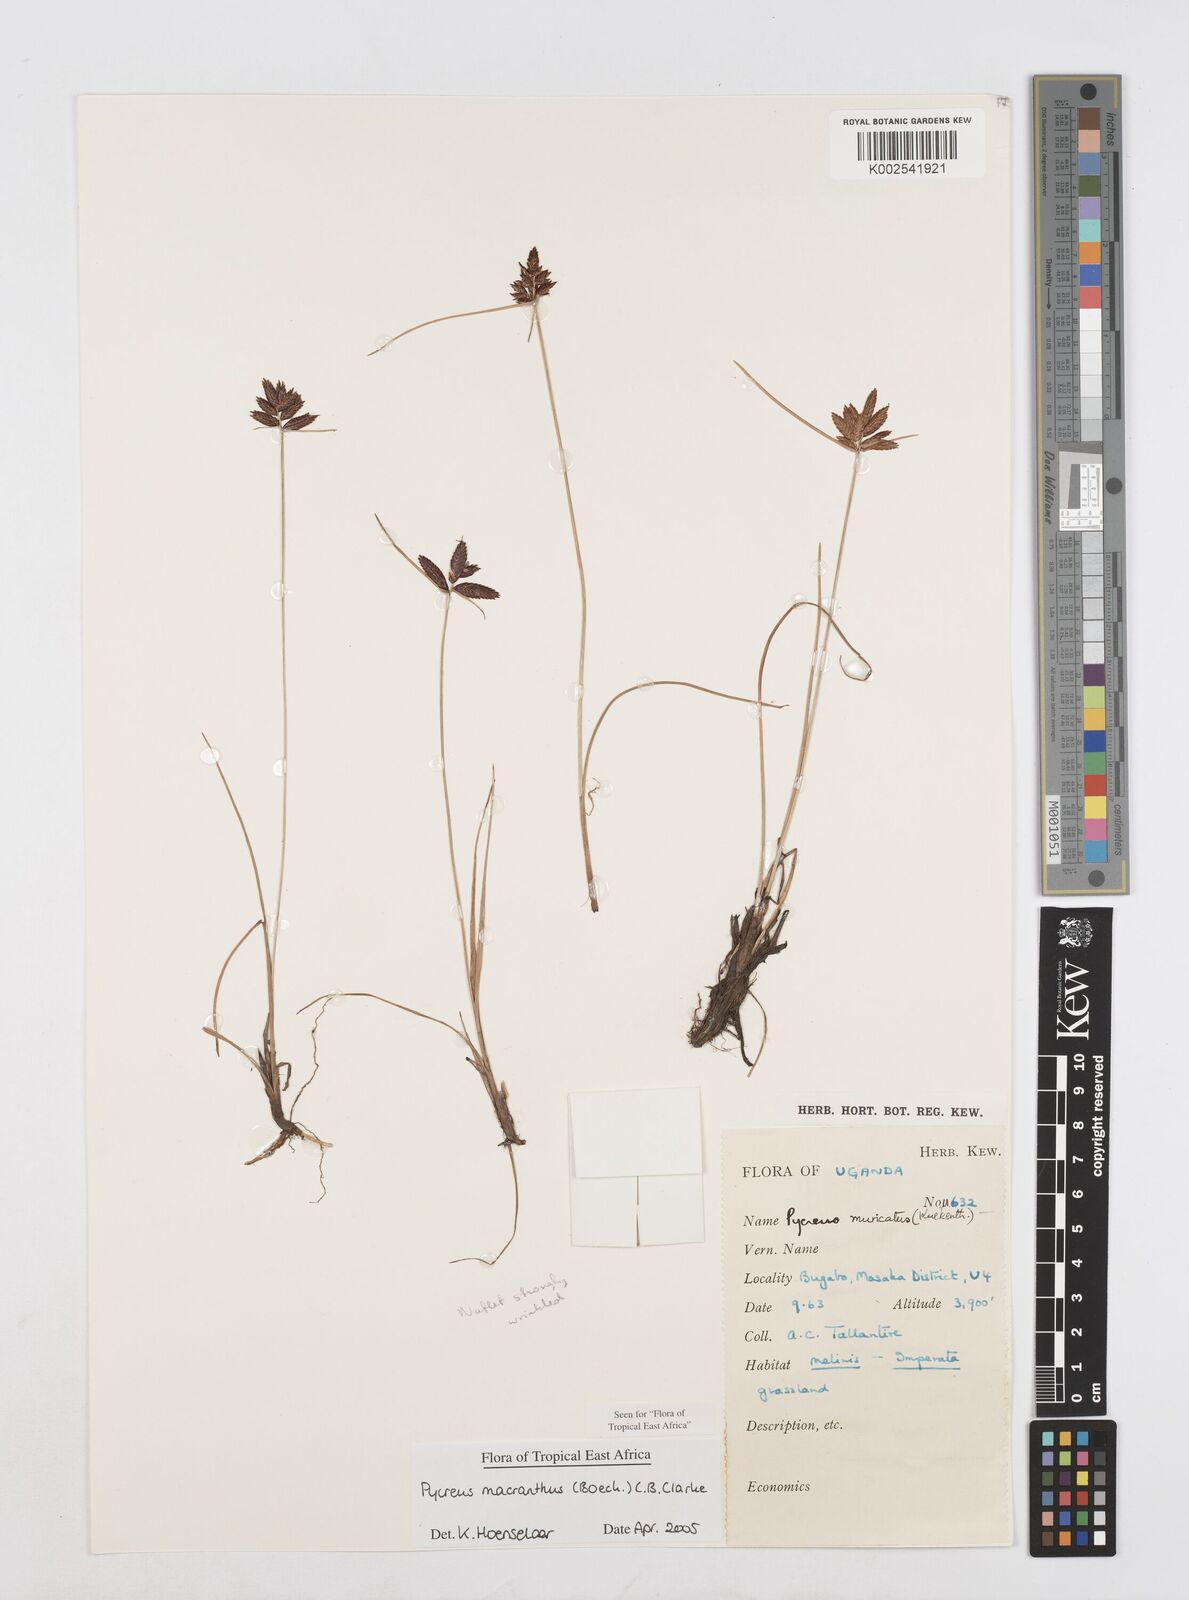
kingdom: Plantae
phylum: Tracheophyta
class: Liliopsida
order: Poales
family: Cyperaceae
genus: Cyperus
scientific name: Cyperus nigricans
